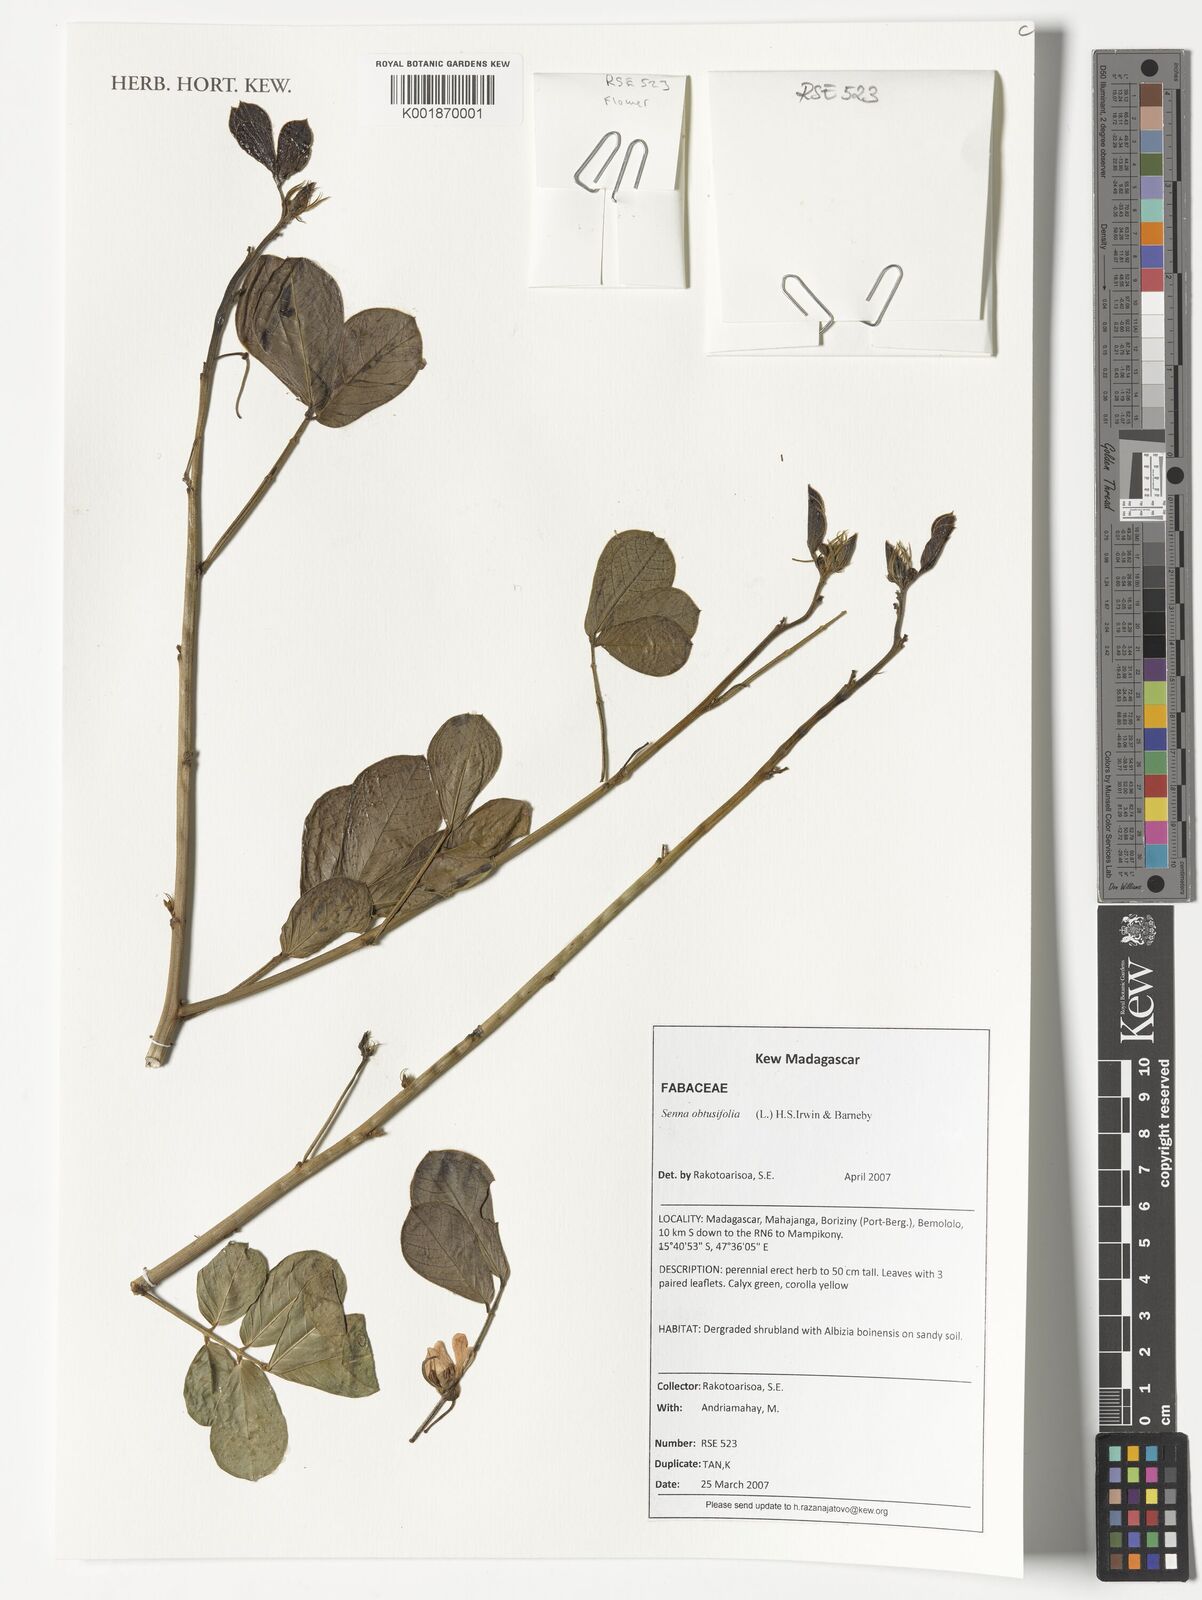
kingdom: Plantae
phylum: Tracheophyta
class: Magnoliopsida
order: Fabales
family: Fabaceae
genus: Senna
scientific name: Senna obtusifolia
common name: Java-bean
